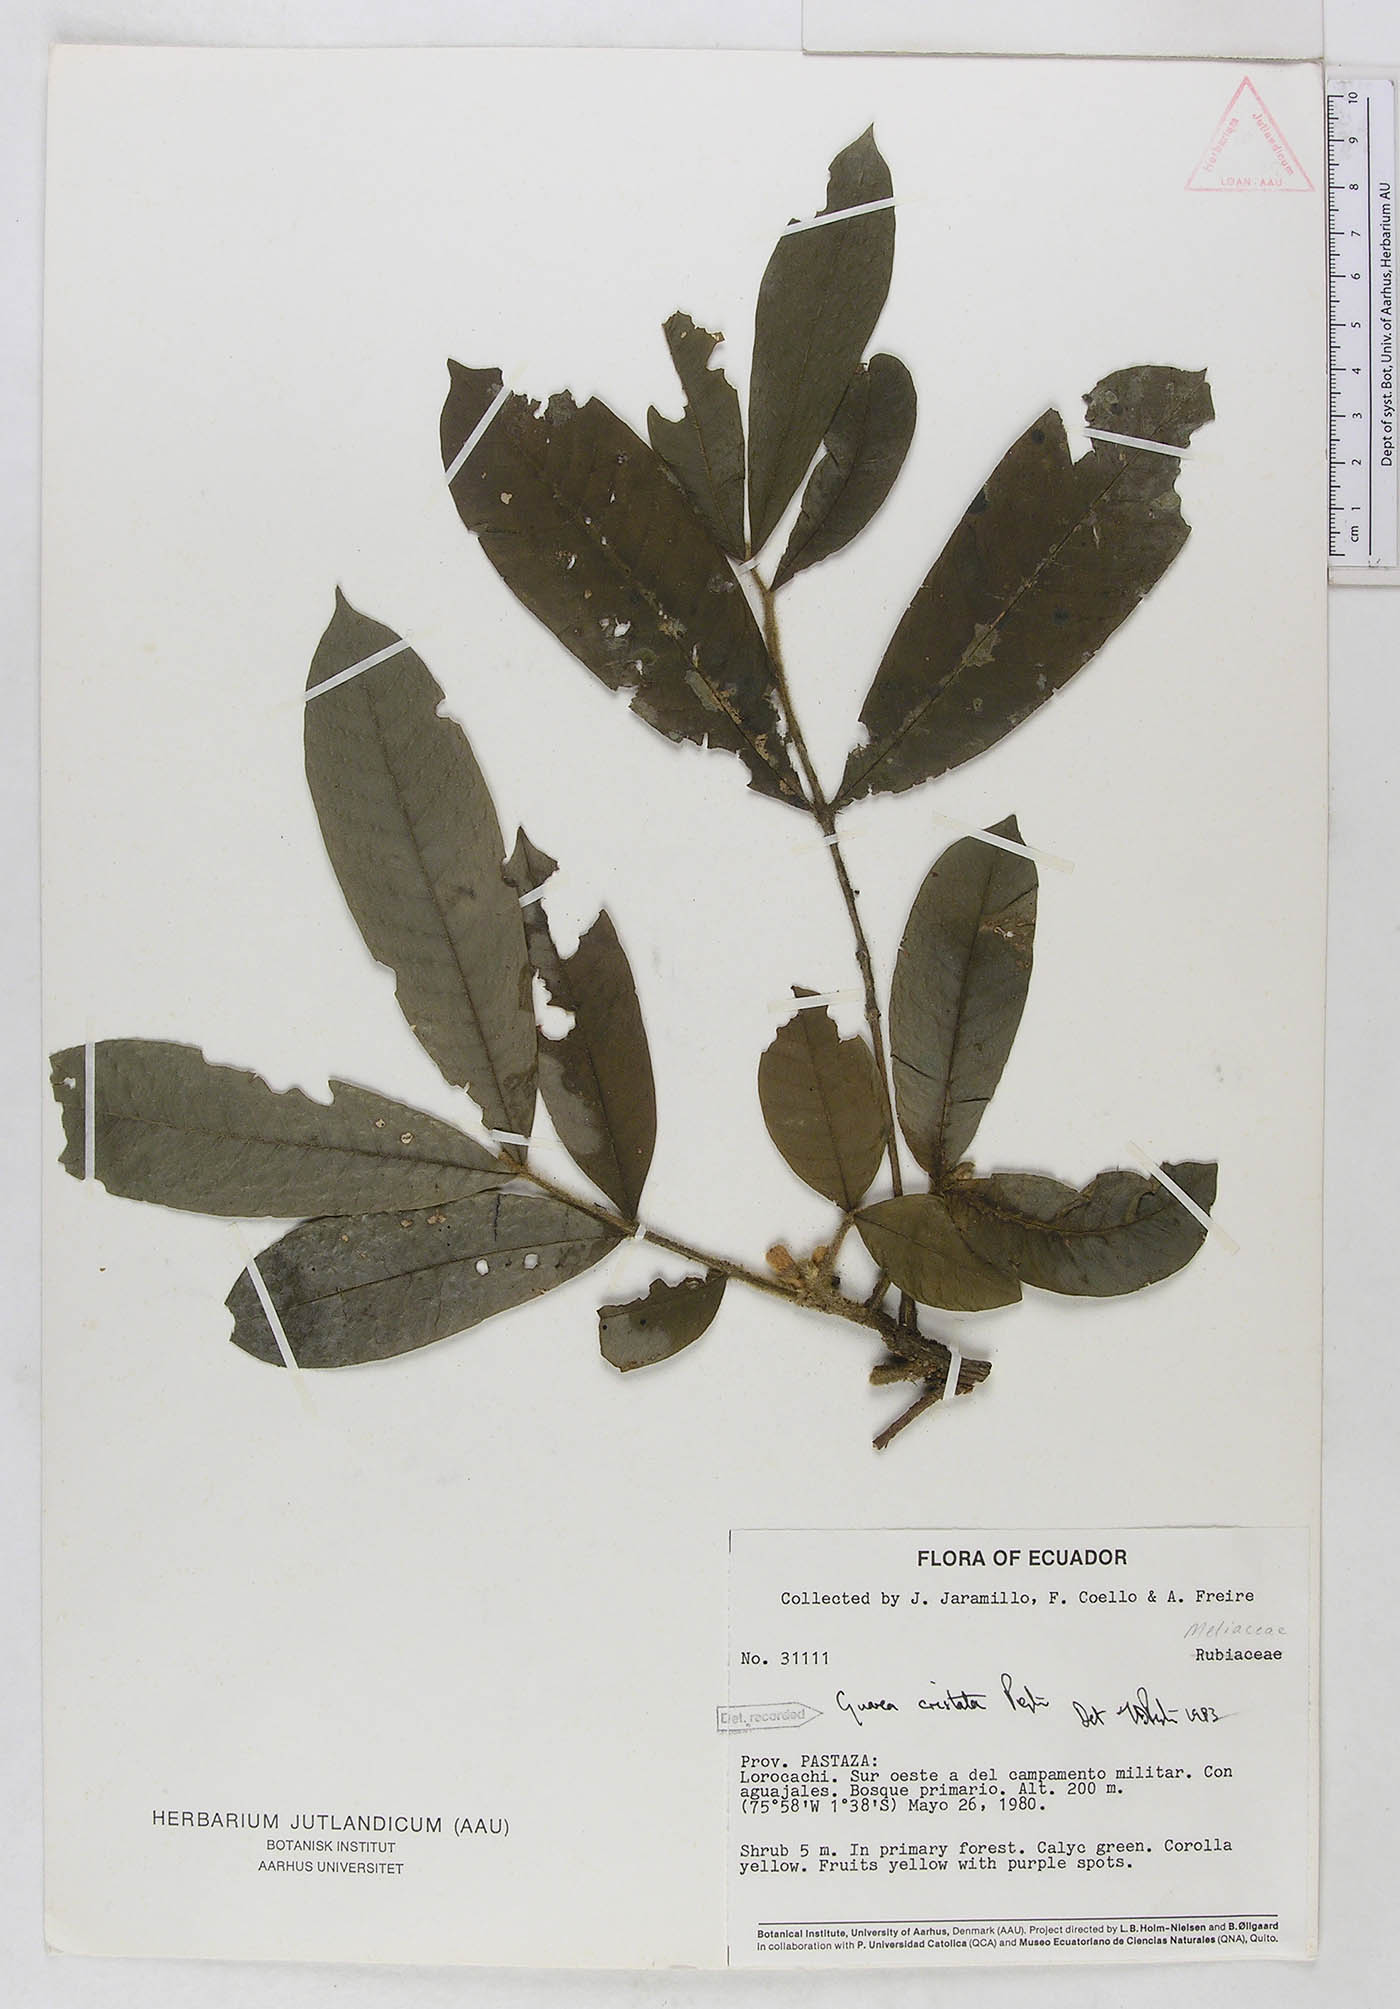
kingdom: Plantae
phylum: Tracheophyta
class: Magnoliopsida
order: Sapindales
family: Meliaceae
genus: Guarea
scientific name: Guarea cristata
